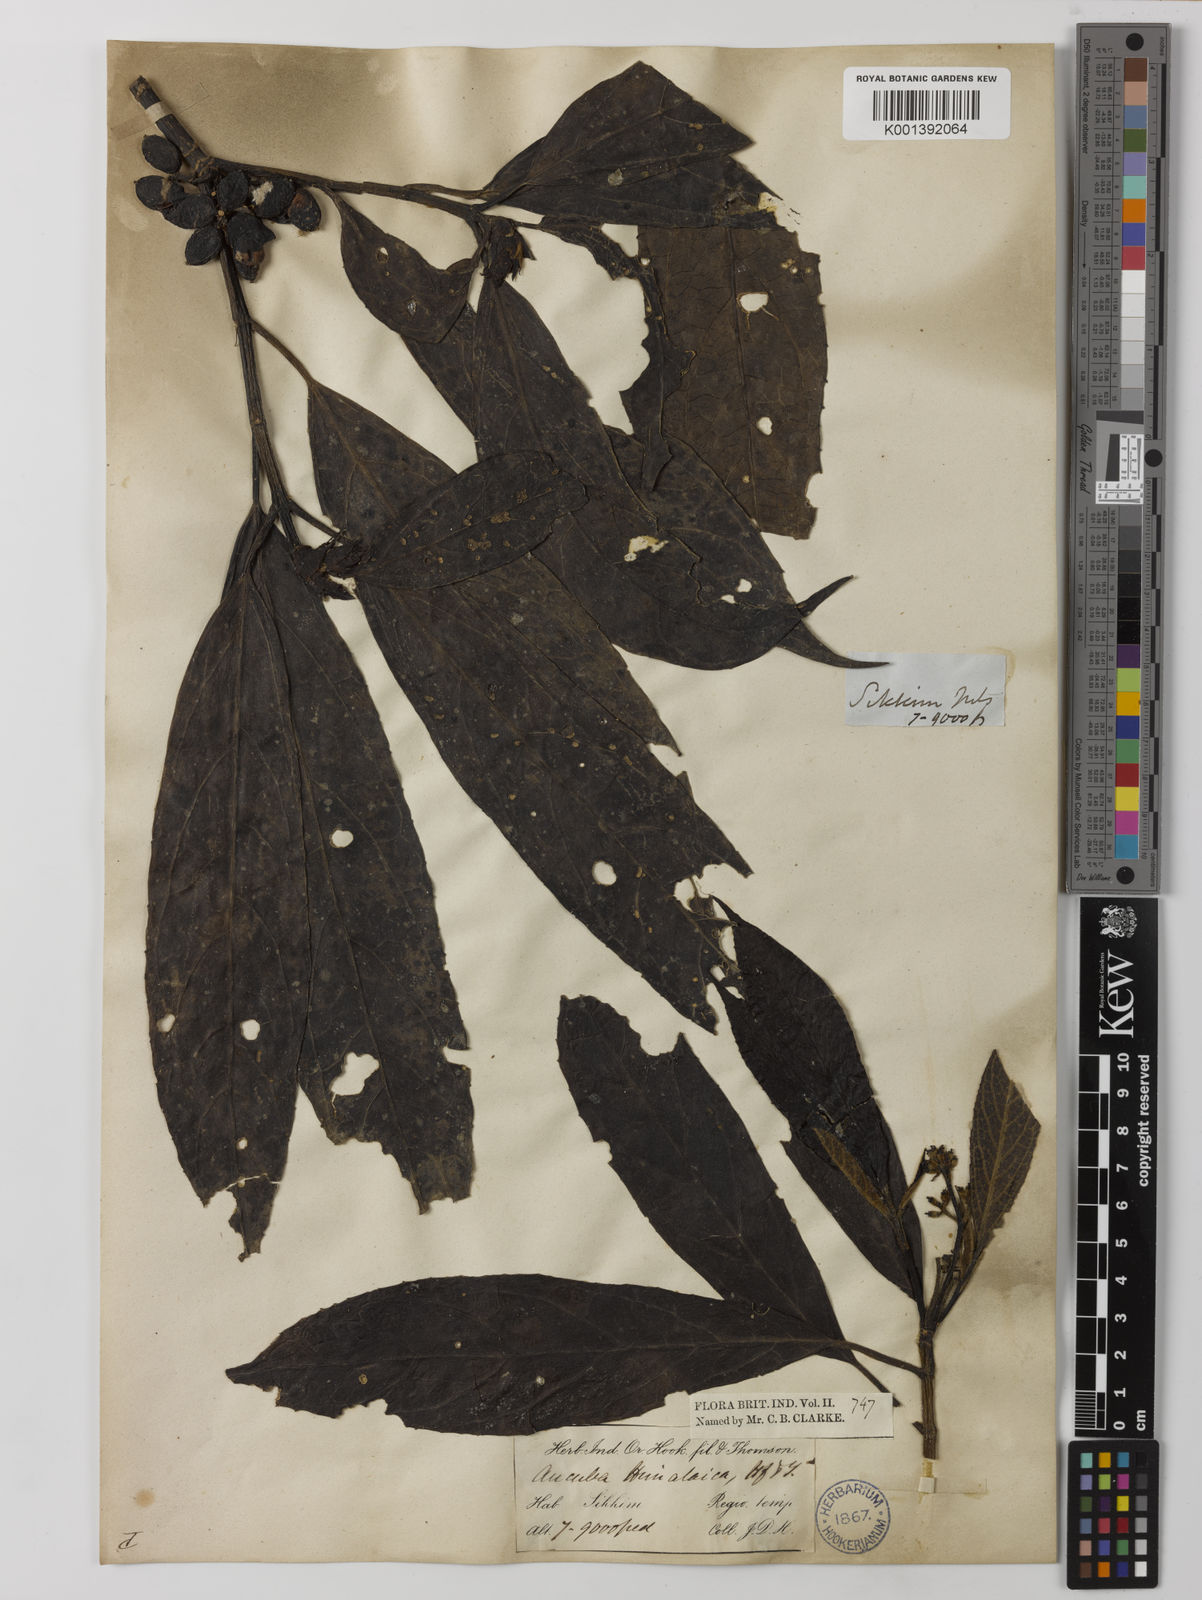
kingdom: Plantae
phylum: Tracheophyta
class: Magnoliopsida
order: Garryales
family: Garryaceae
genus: Aucuba
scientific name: Aucuba himalaica
